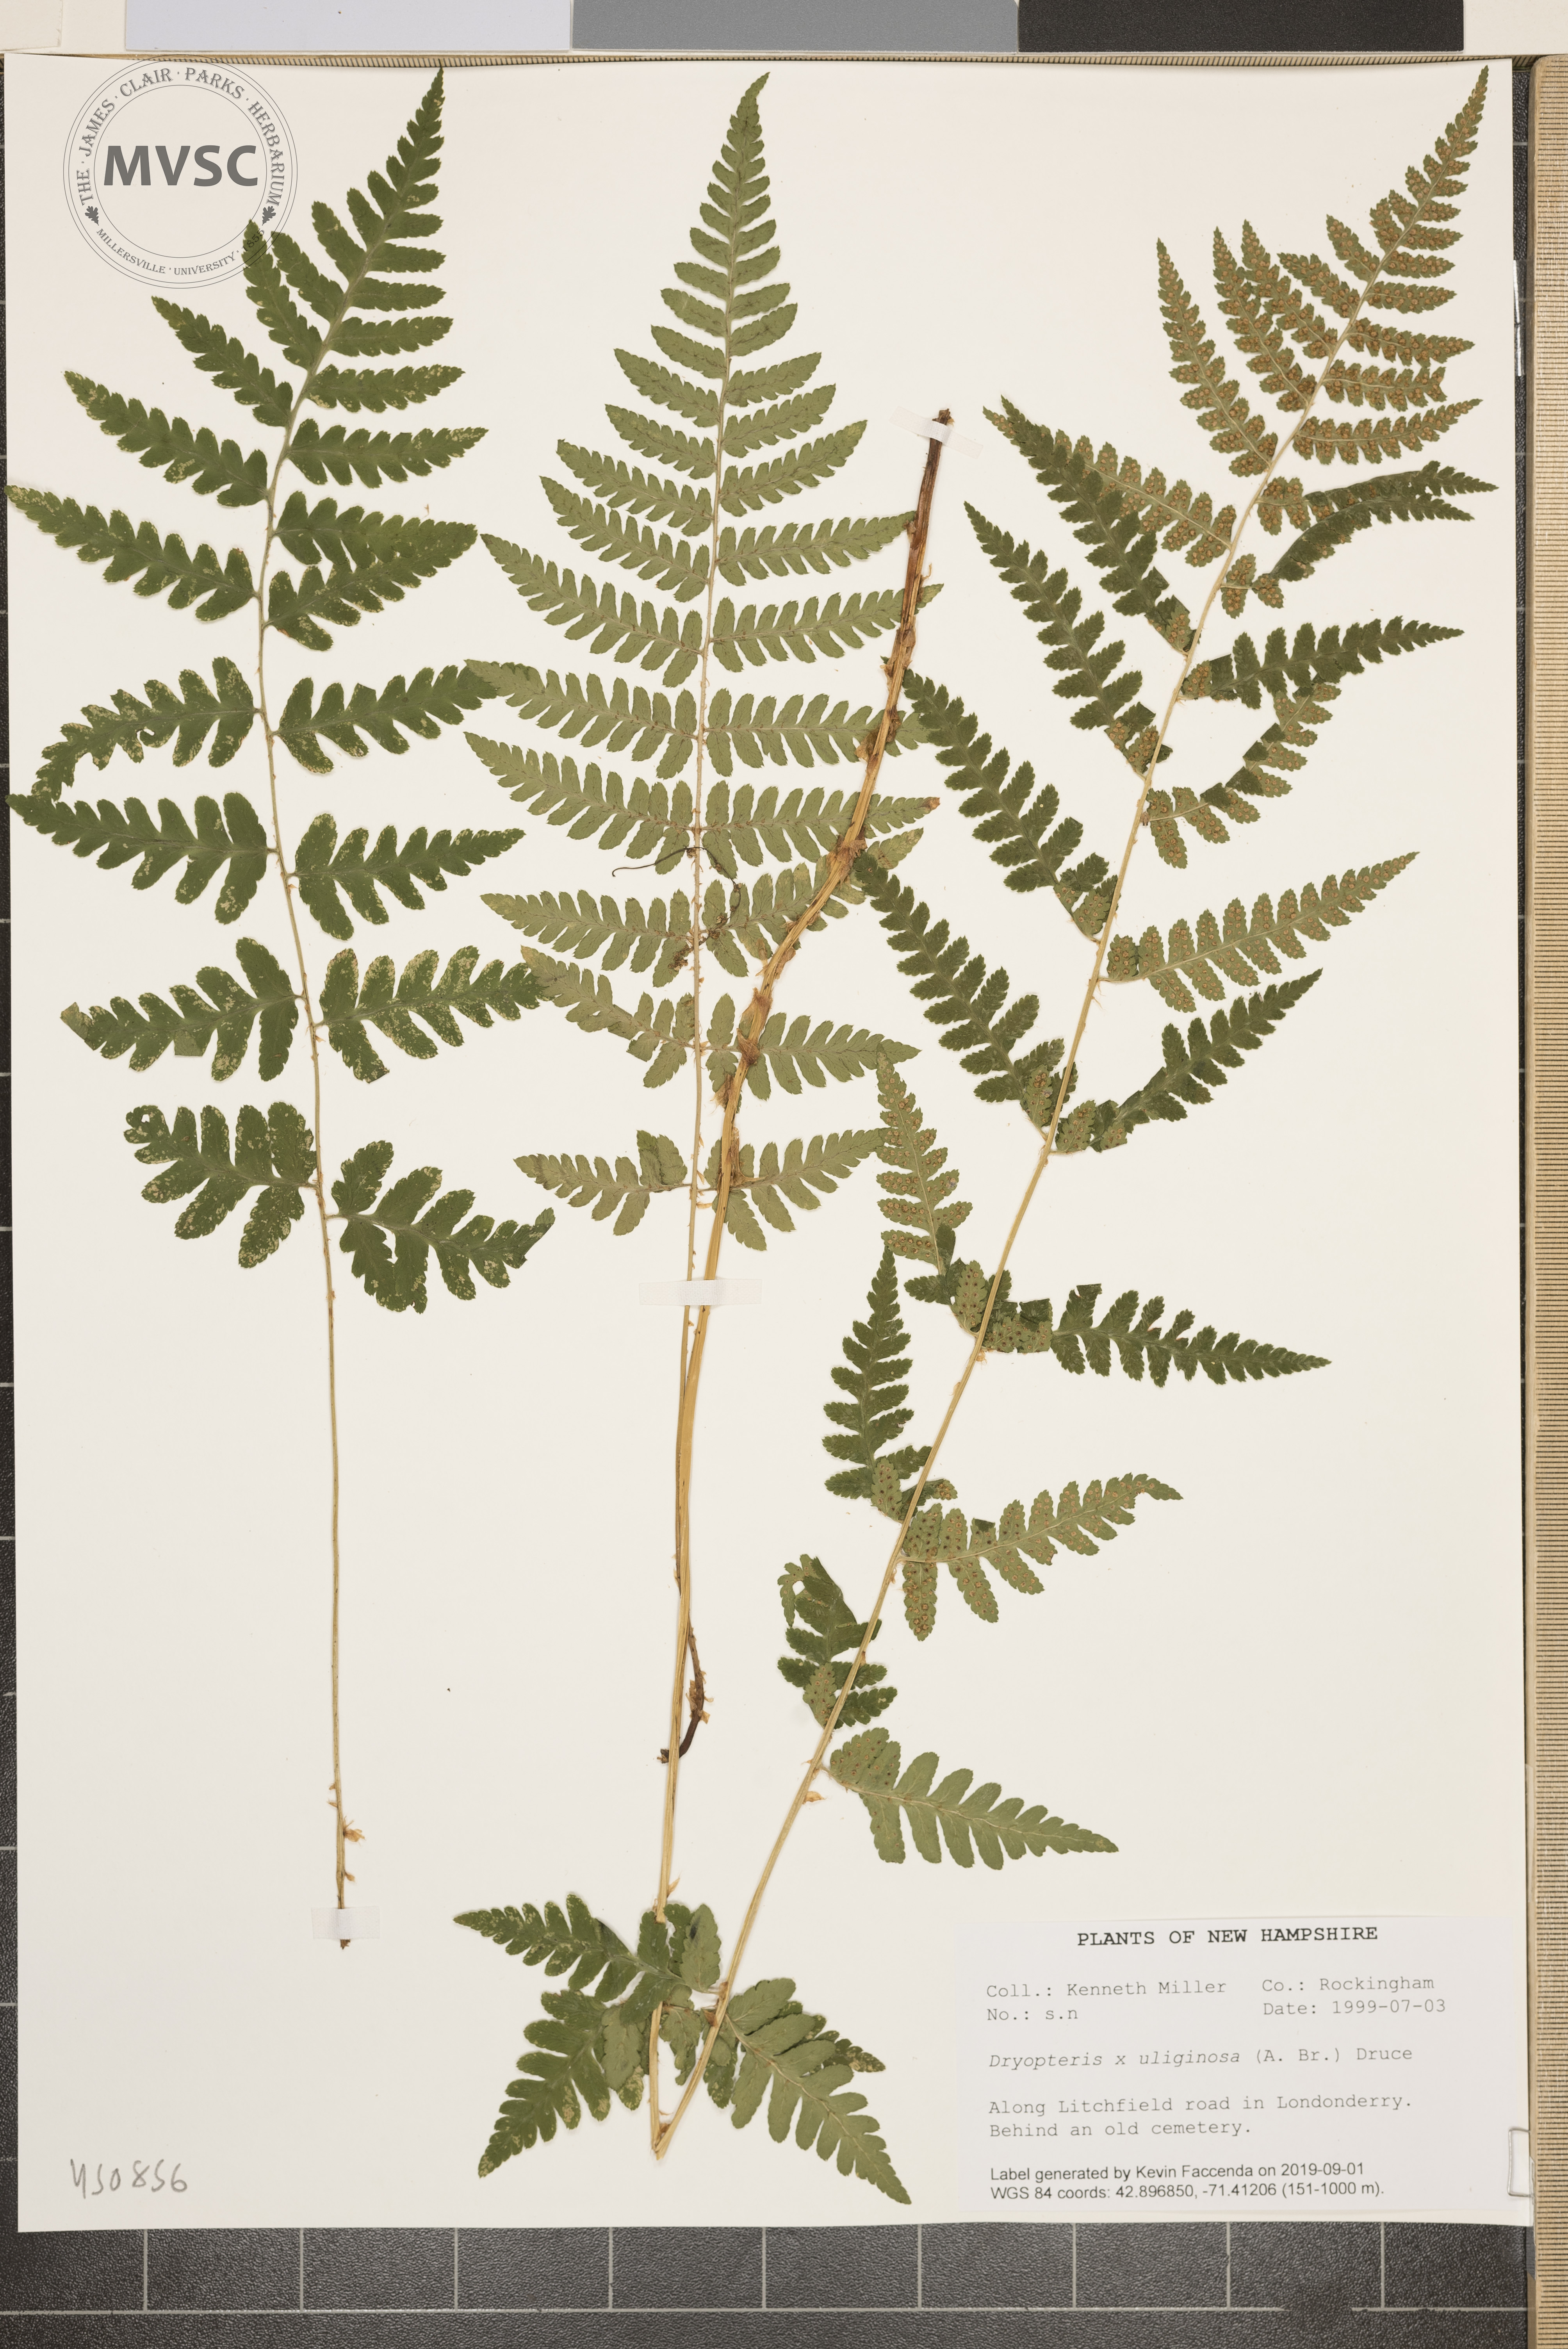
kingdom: Plantae
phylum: Tracheophyta
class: Polypodiopsida
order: Polypodiales
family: Dryopteridaceae
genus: Dryopteris
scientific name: Dryopteris uliginosa
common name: Woodfern
